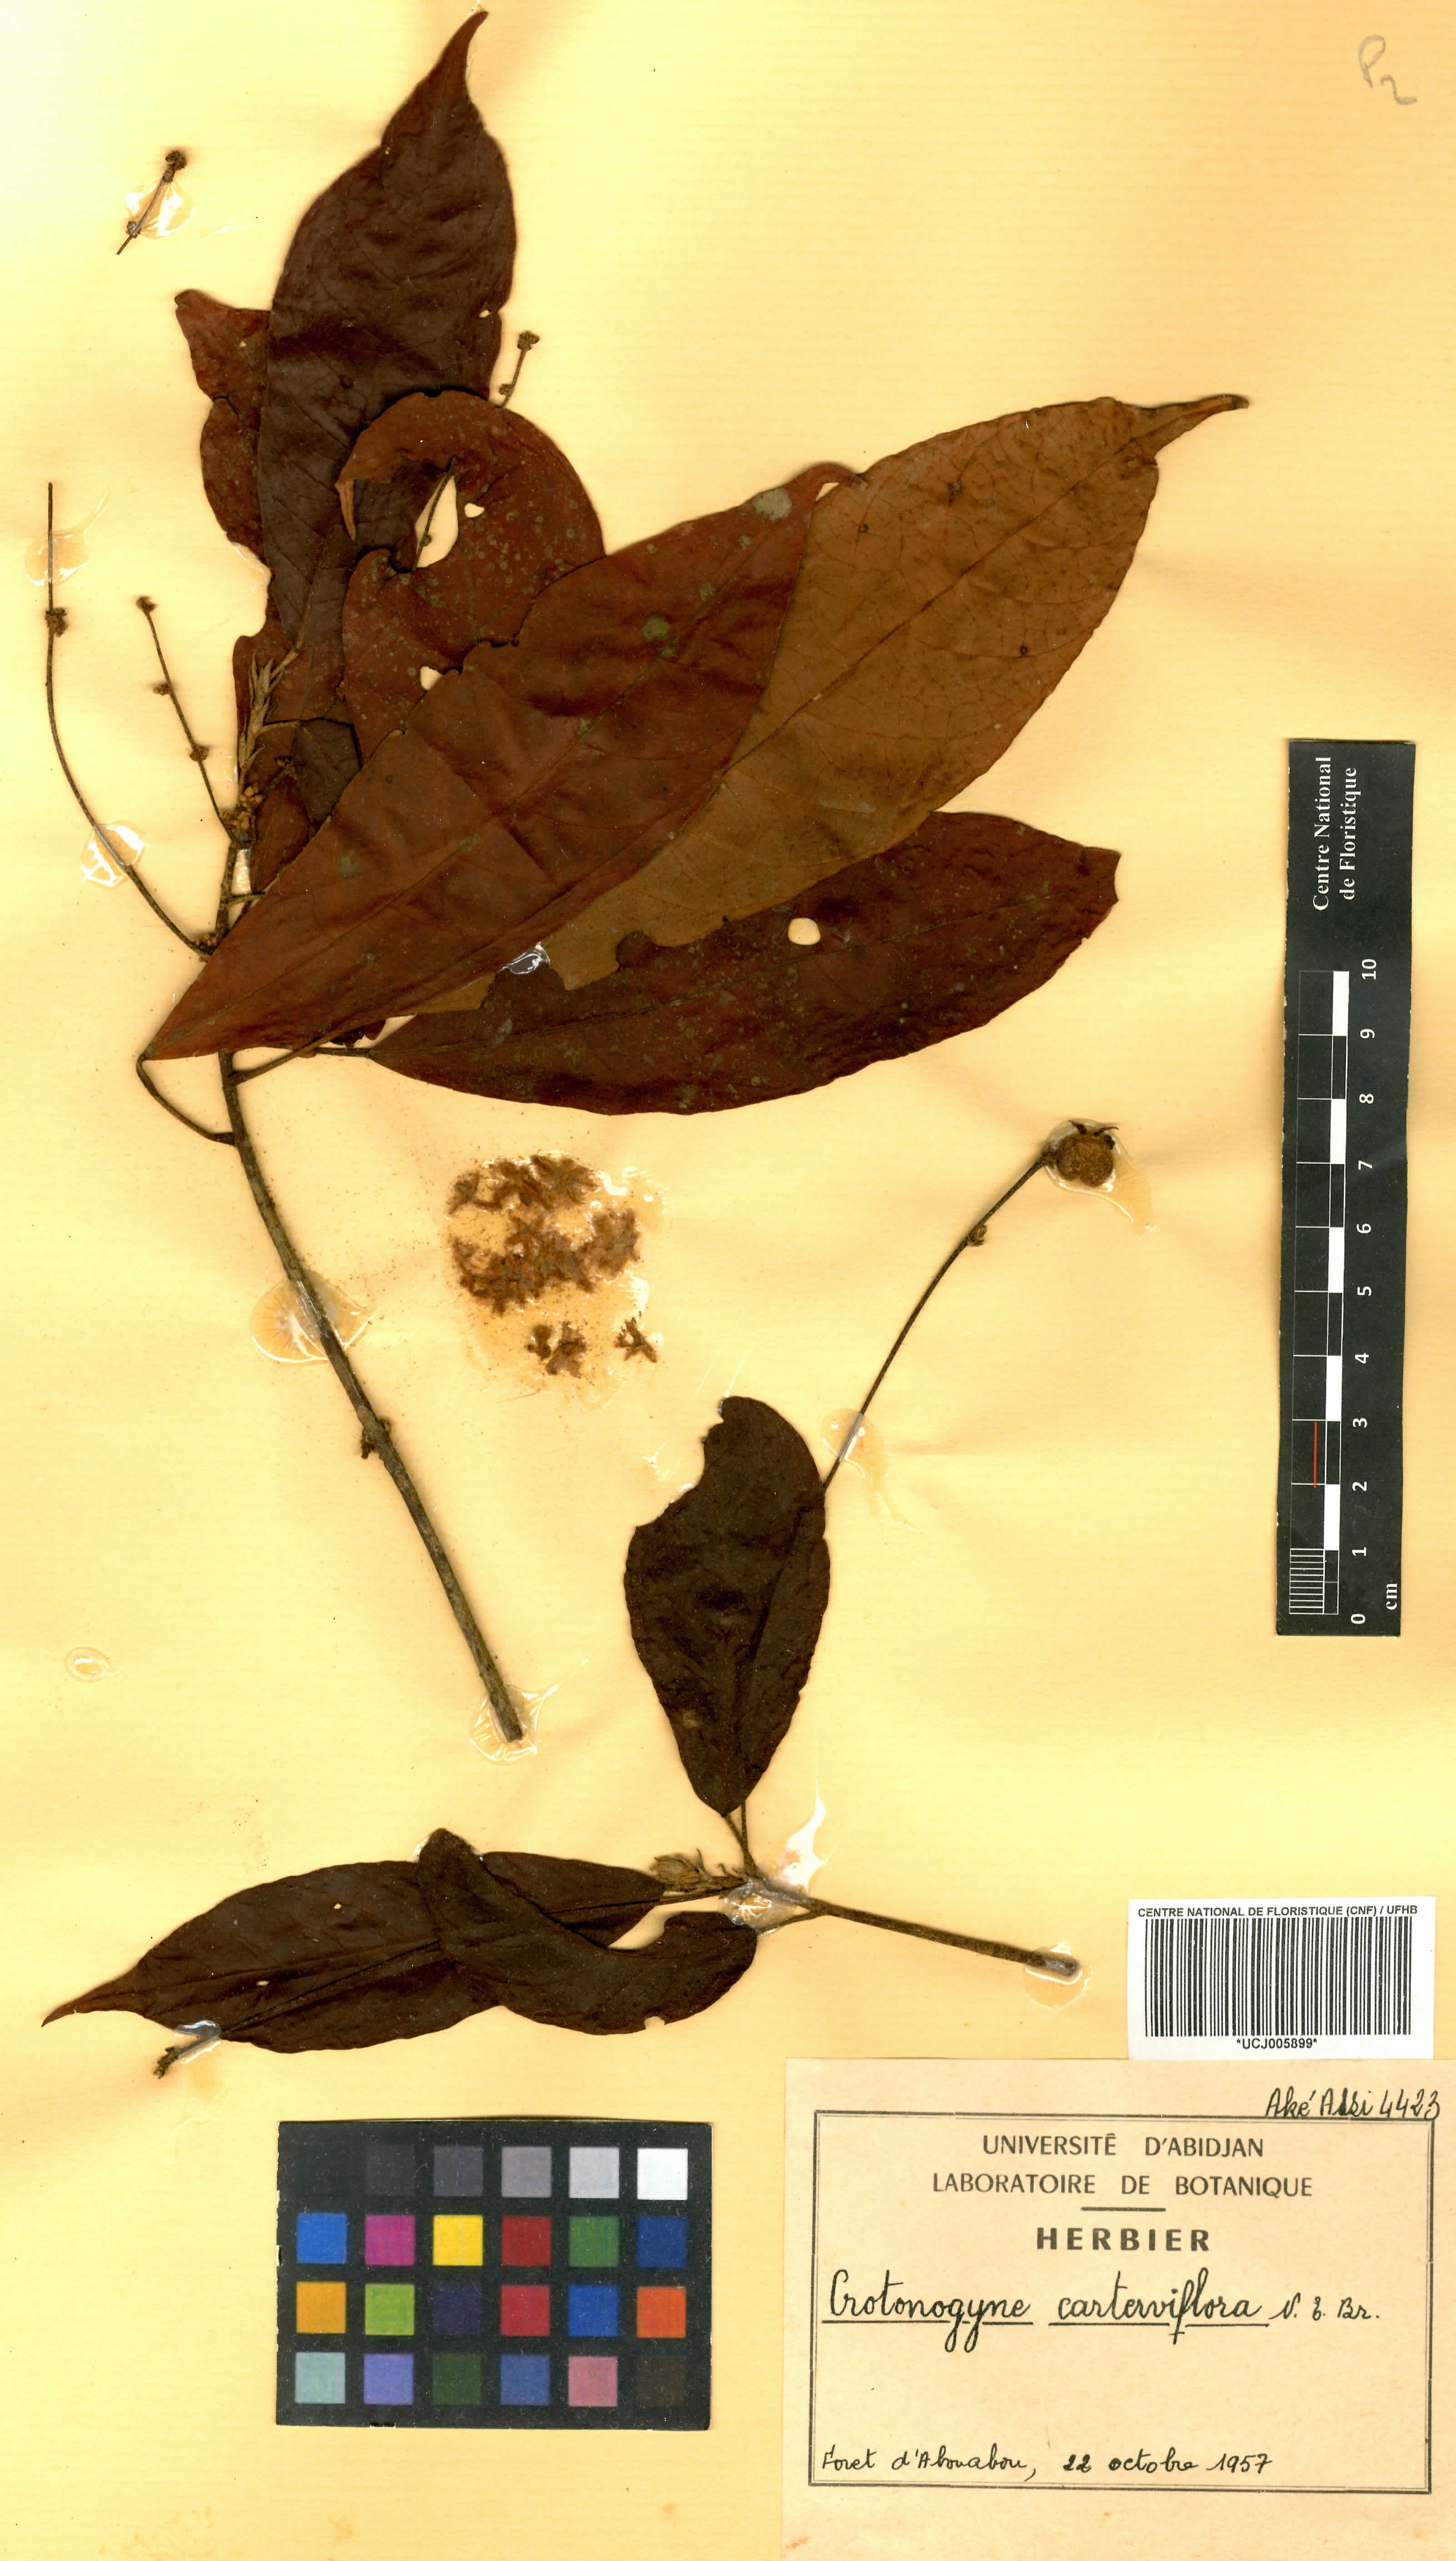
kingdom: Plantae
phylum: Tracheophyta
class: Magnoliopsida
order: Malpighiales
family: Euphorbiaceae
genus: Crotonogyne
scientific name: Crotonogyne caterviflora
